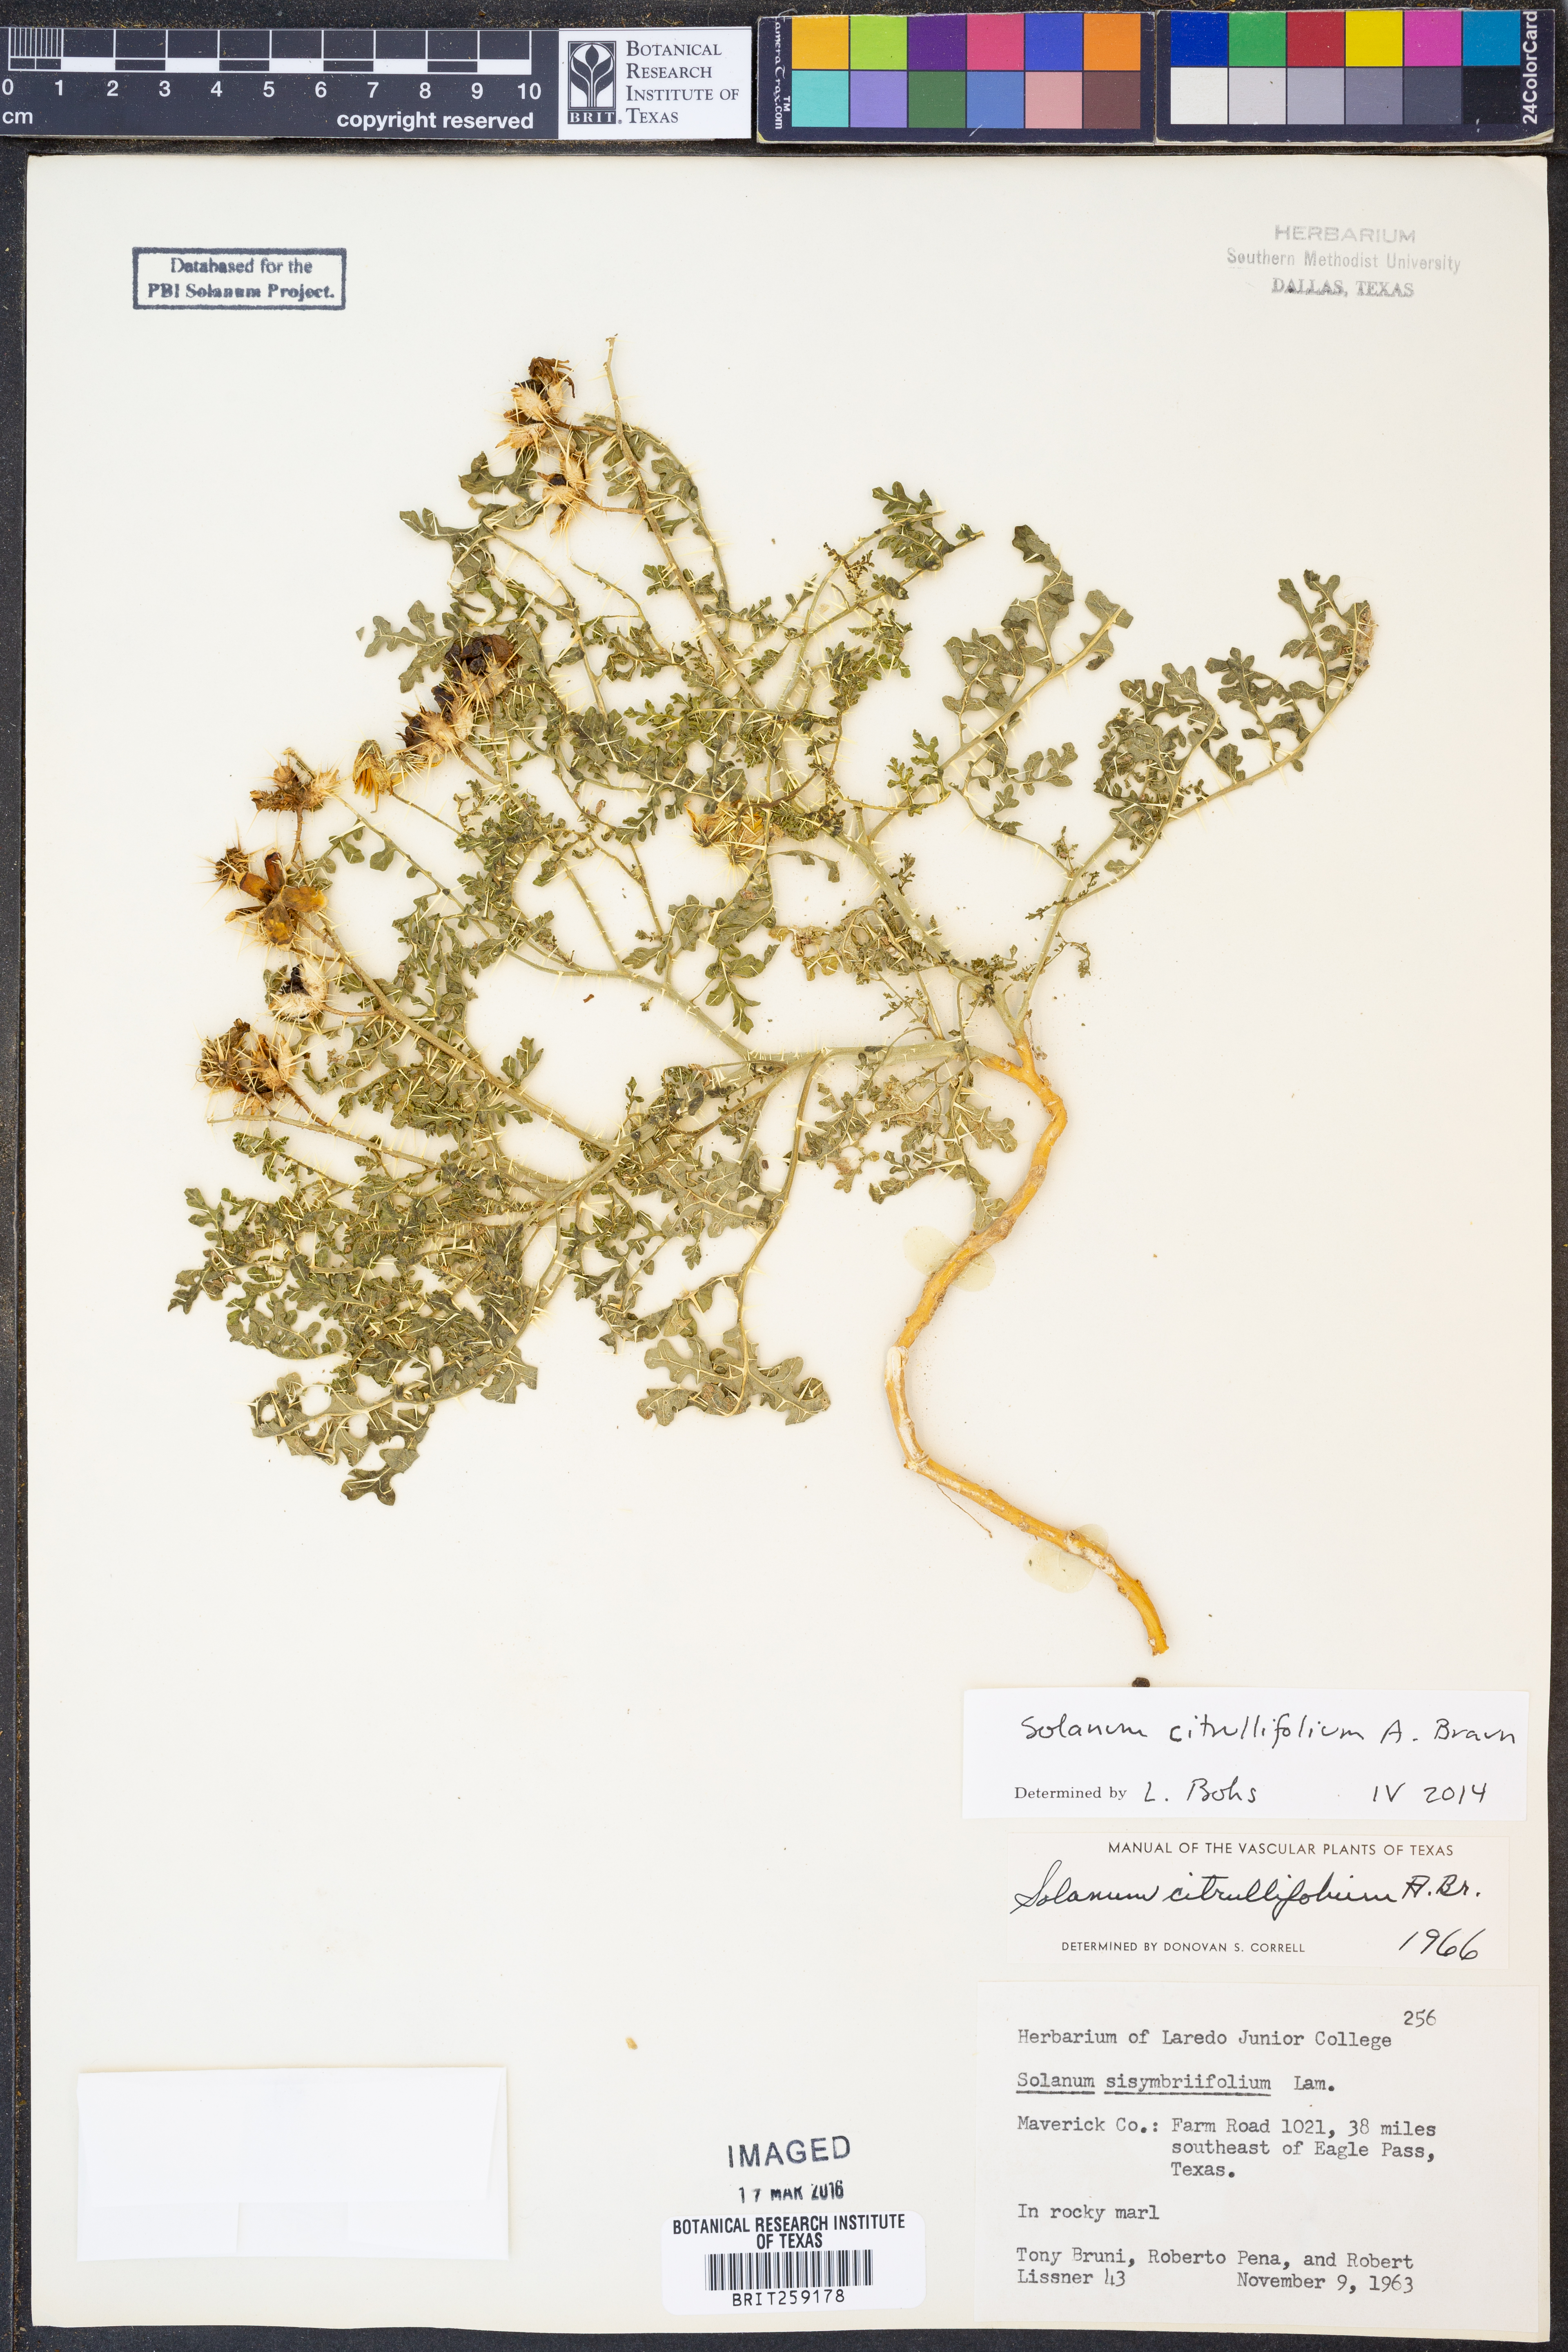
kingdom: Plantae
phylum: Tracheophyta
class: Magnoliopsida
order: Solanales
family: Solanaceae
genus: Solanum
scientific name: Solanum citrullifolium
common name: Melon-leaf nightshade
